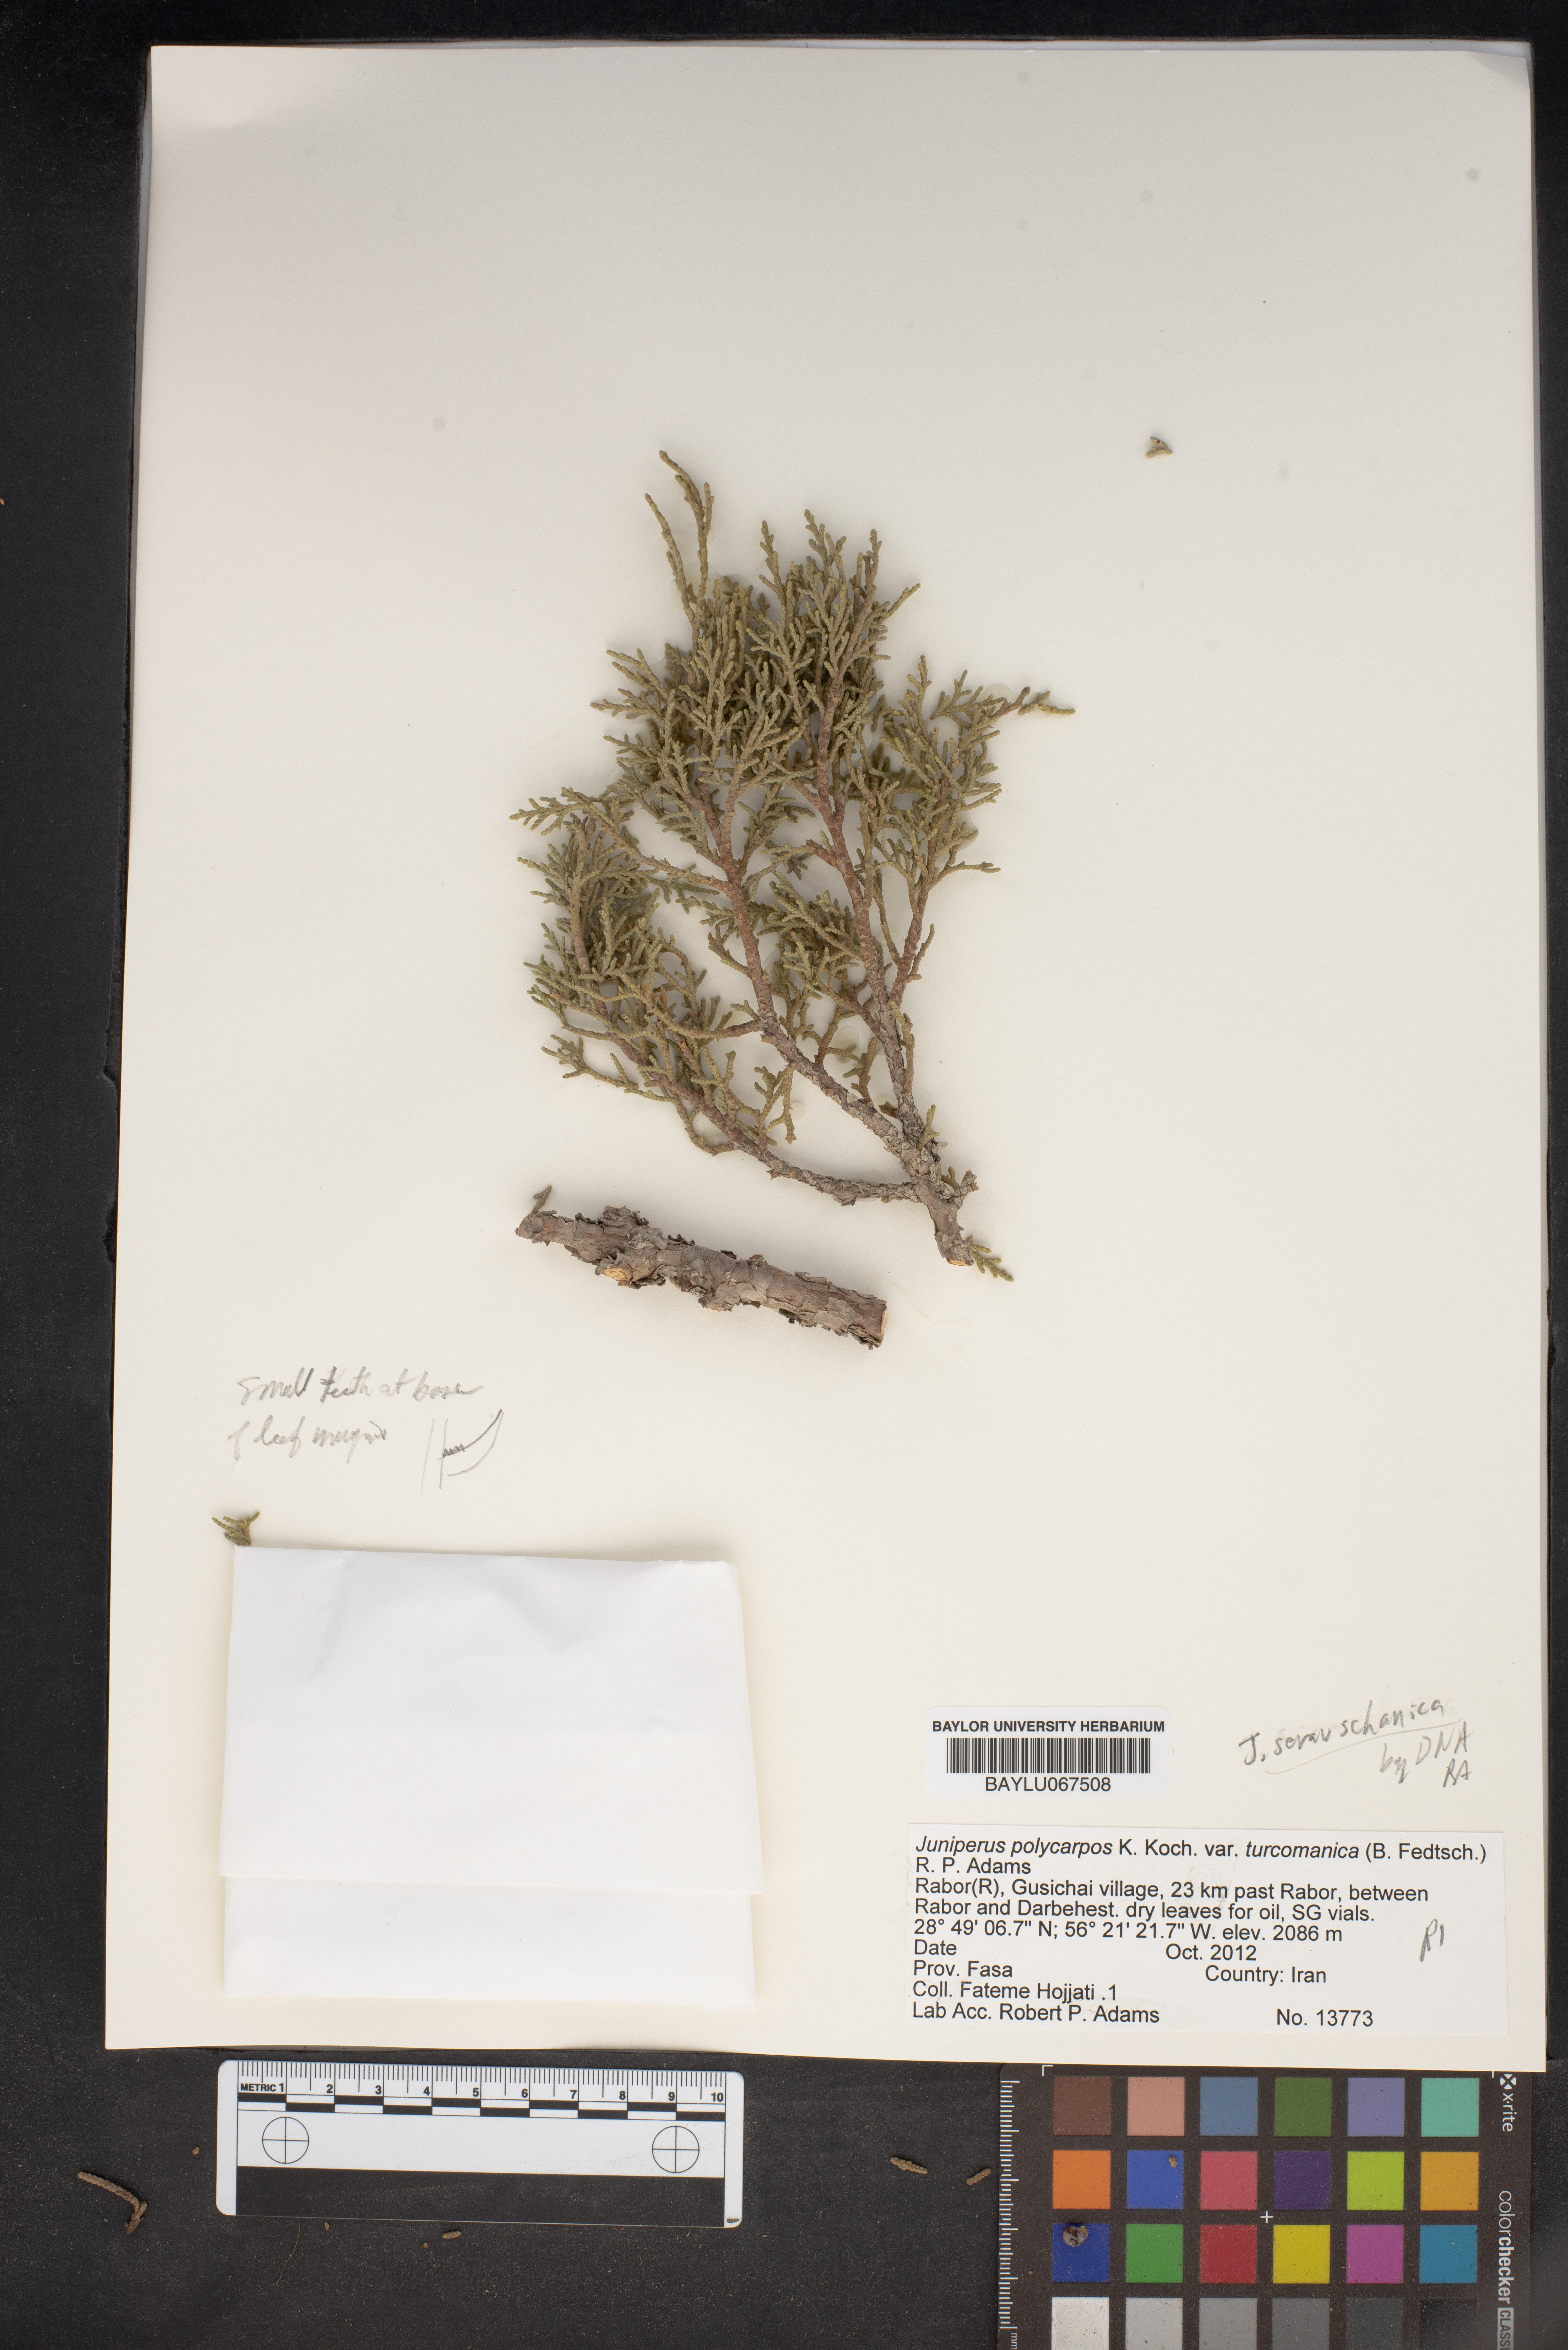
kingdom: Plantae
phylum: Tracheophyta
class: Pinopsida
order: Pinales
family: Cupressaceae
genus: Juniperus
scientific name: Juniperus excelsa
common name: Crimean juniper
